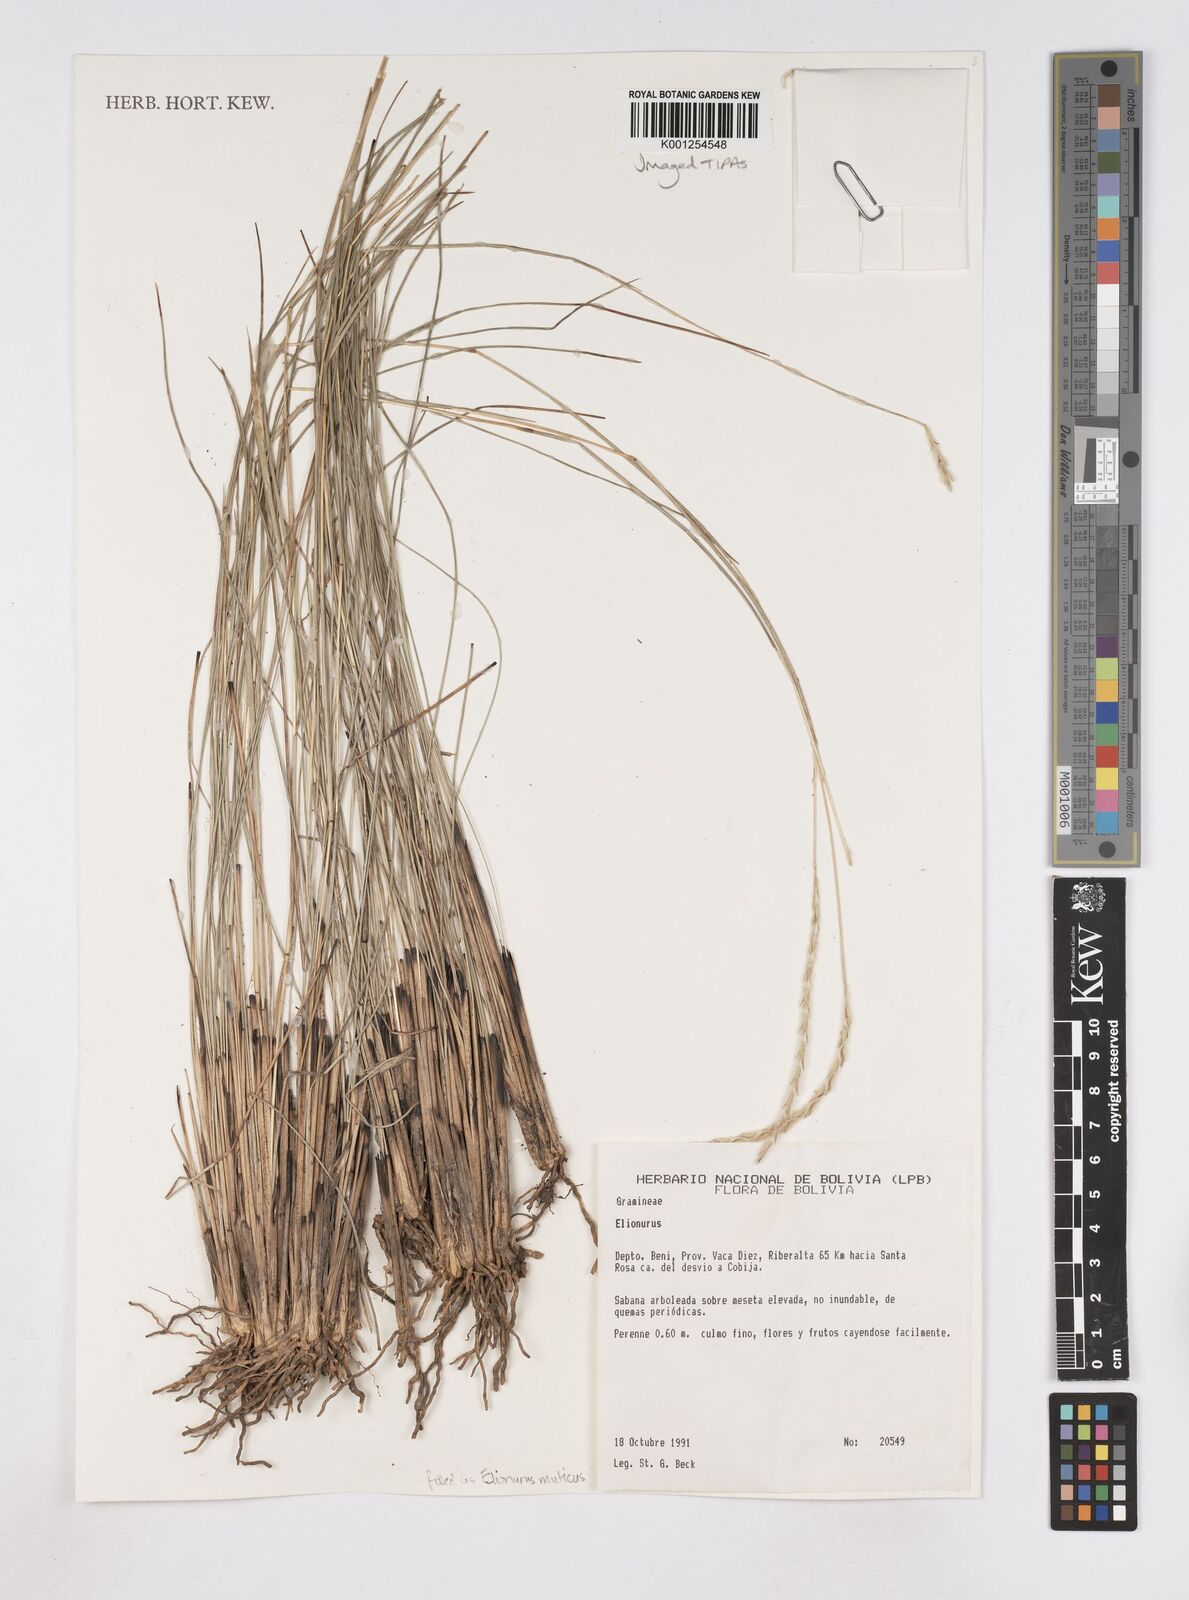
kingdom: Plantae
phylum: Tracheophyta
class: Liliopsida
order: Poales
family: Poaceae
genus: Elionurus
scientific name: Elionurus muticus
